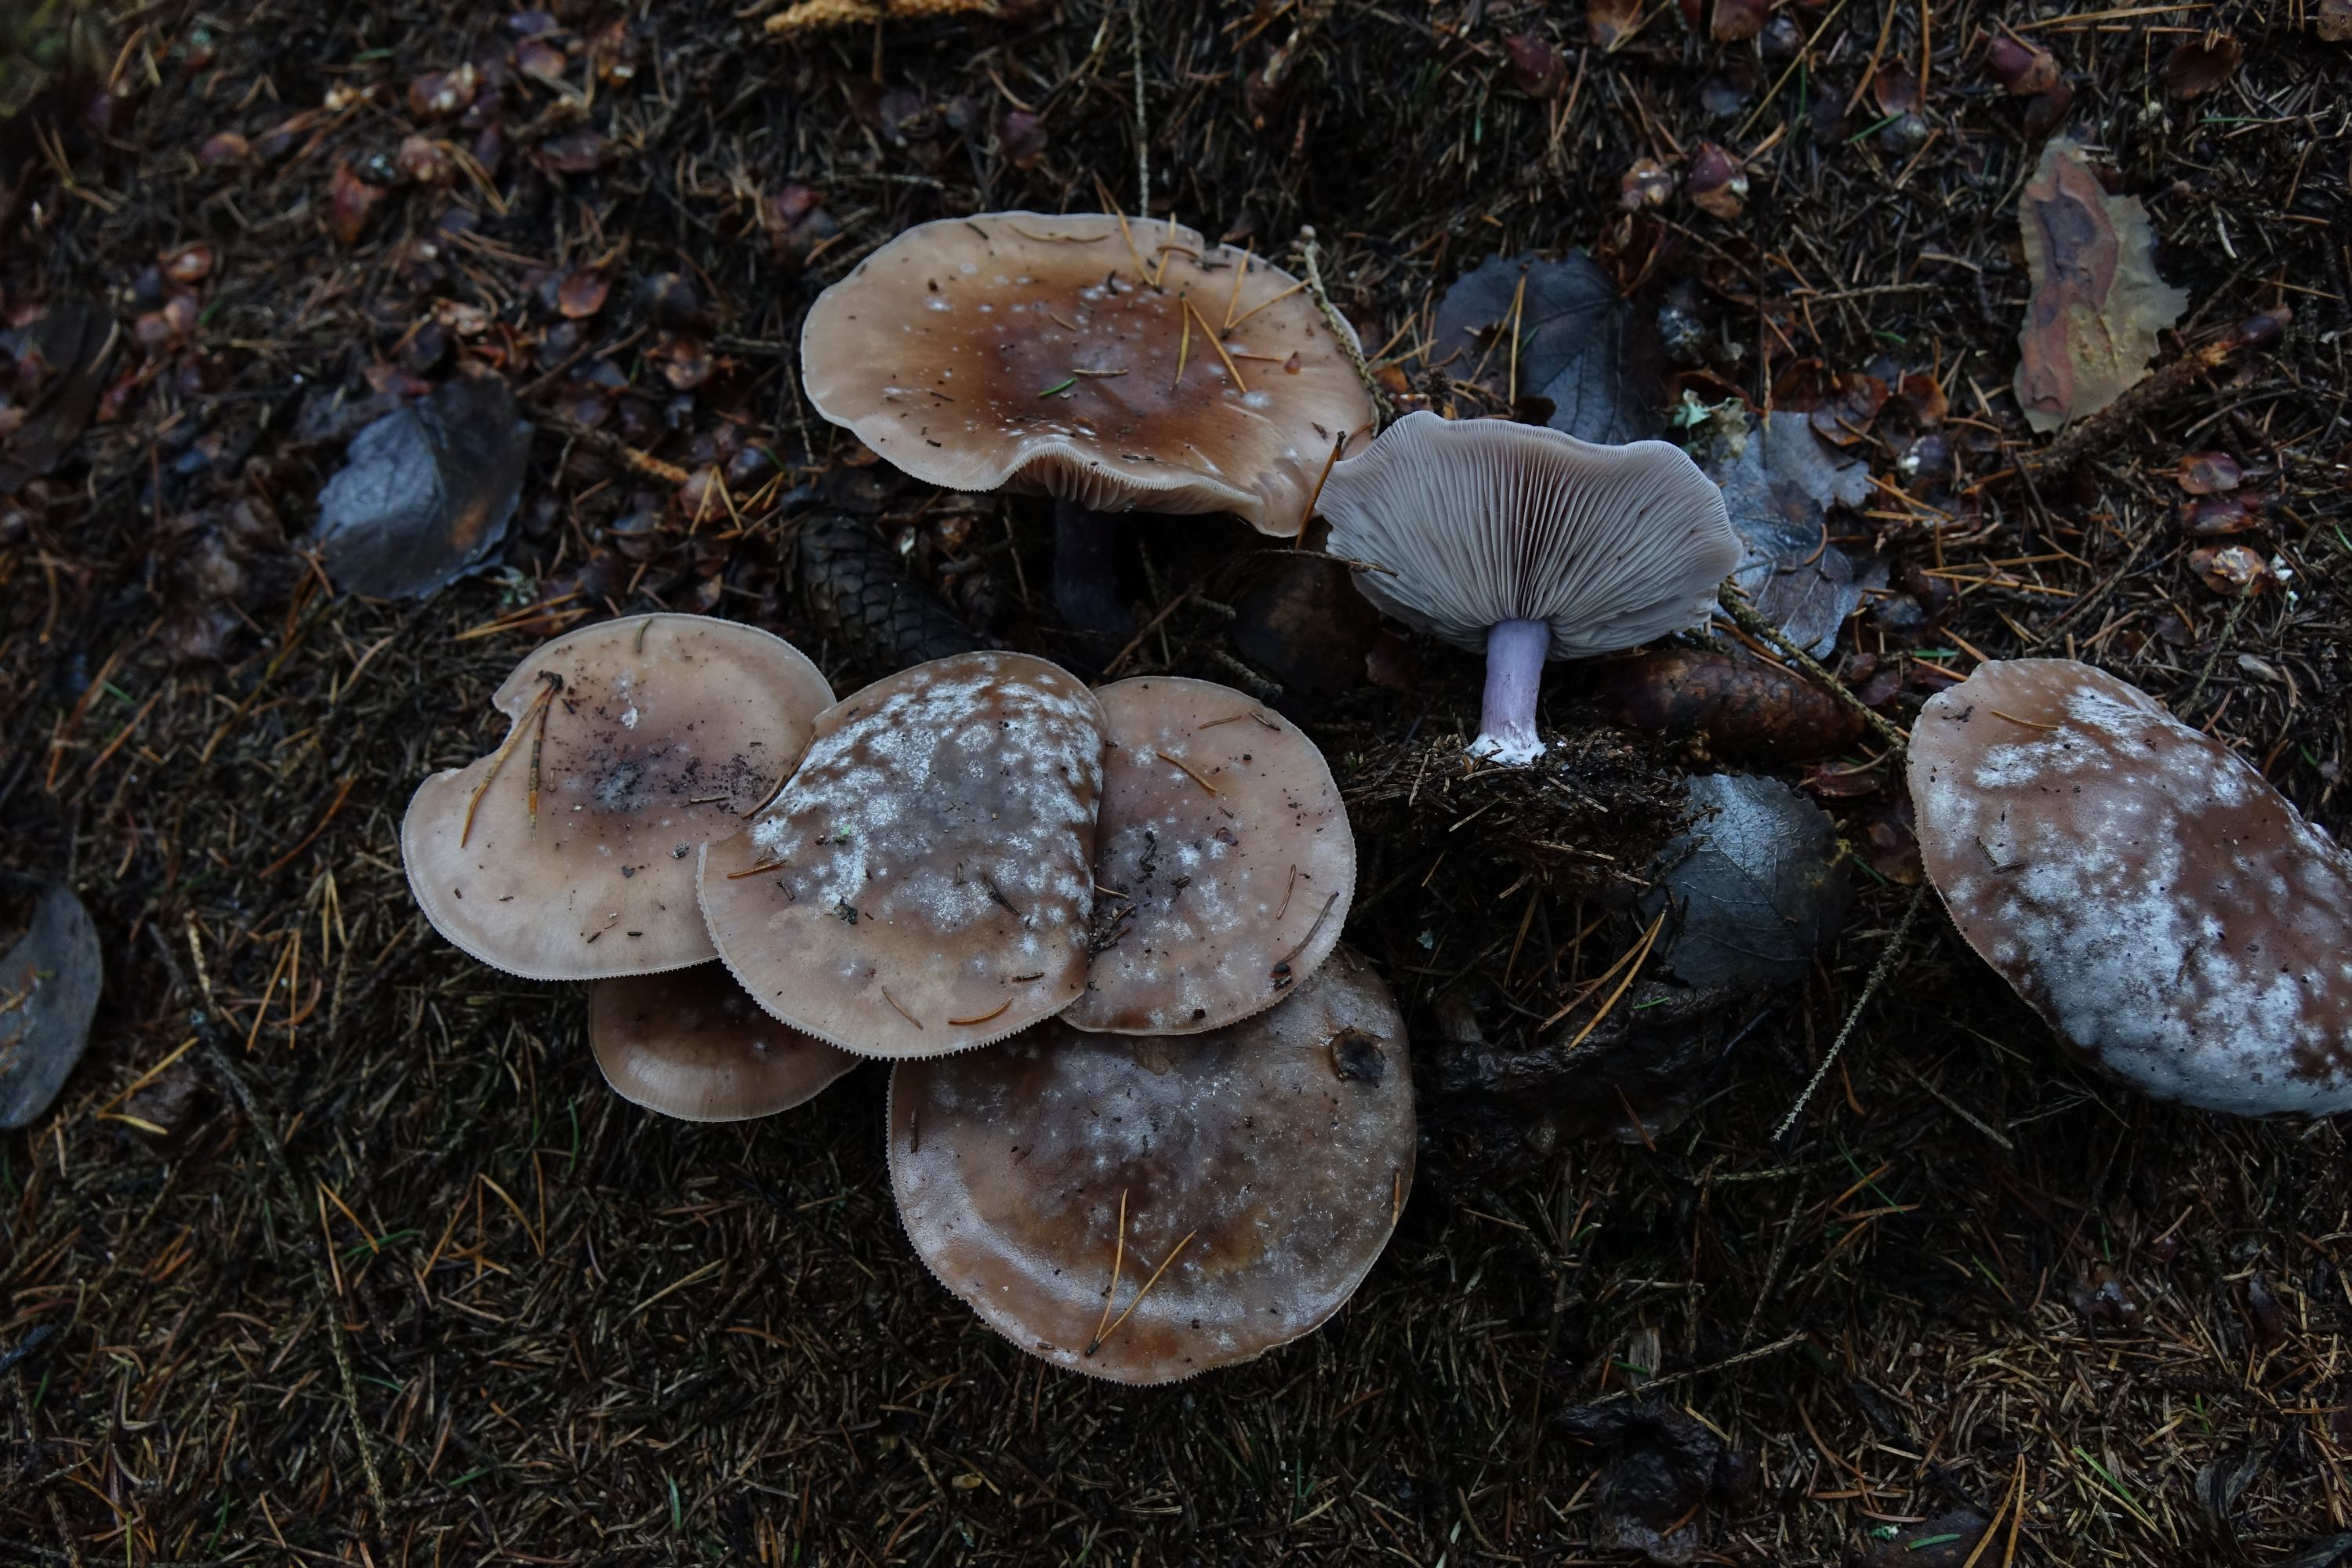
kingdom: Fungi
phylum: Basidiomycota
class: Agaricomycetes
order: Agaricales
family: Tricholomataceae
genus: Lepista
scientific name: Lepista nuda
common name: Wood blewit
